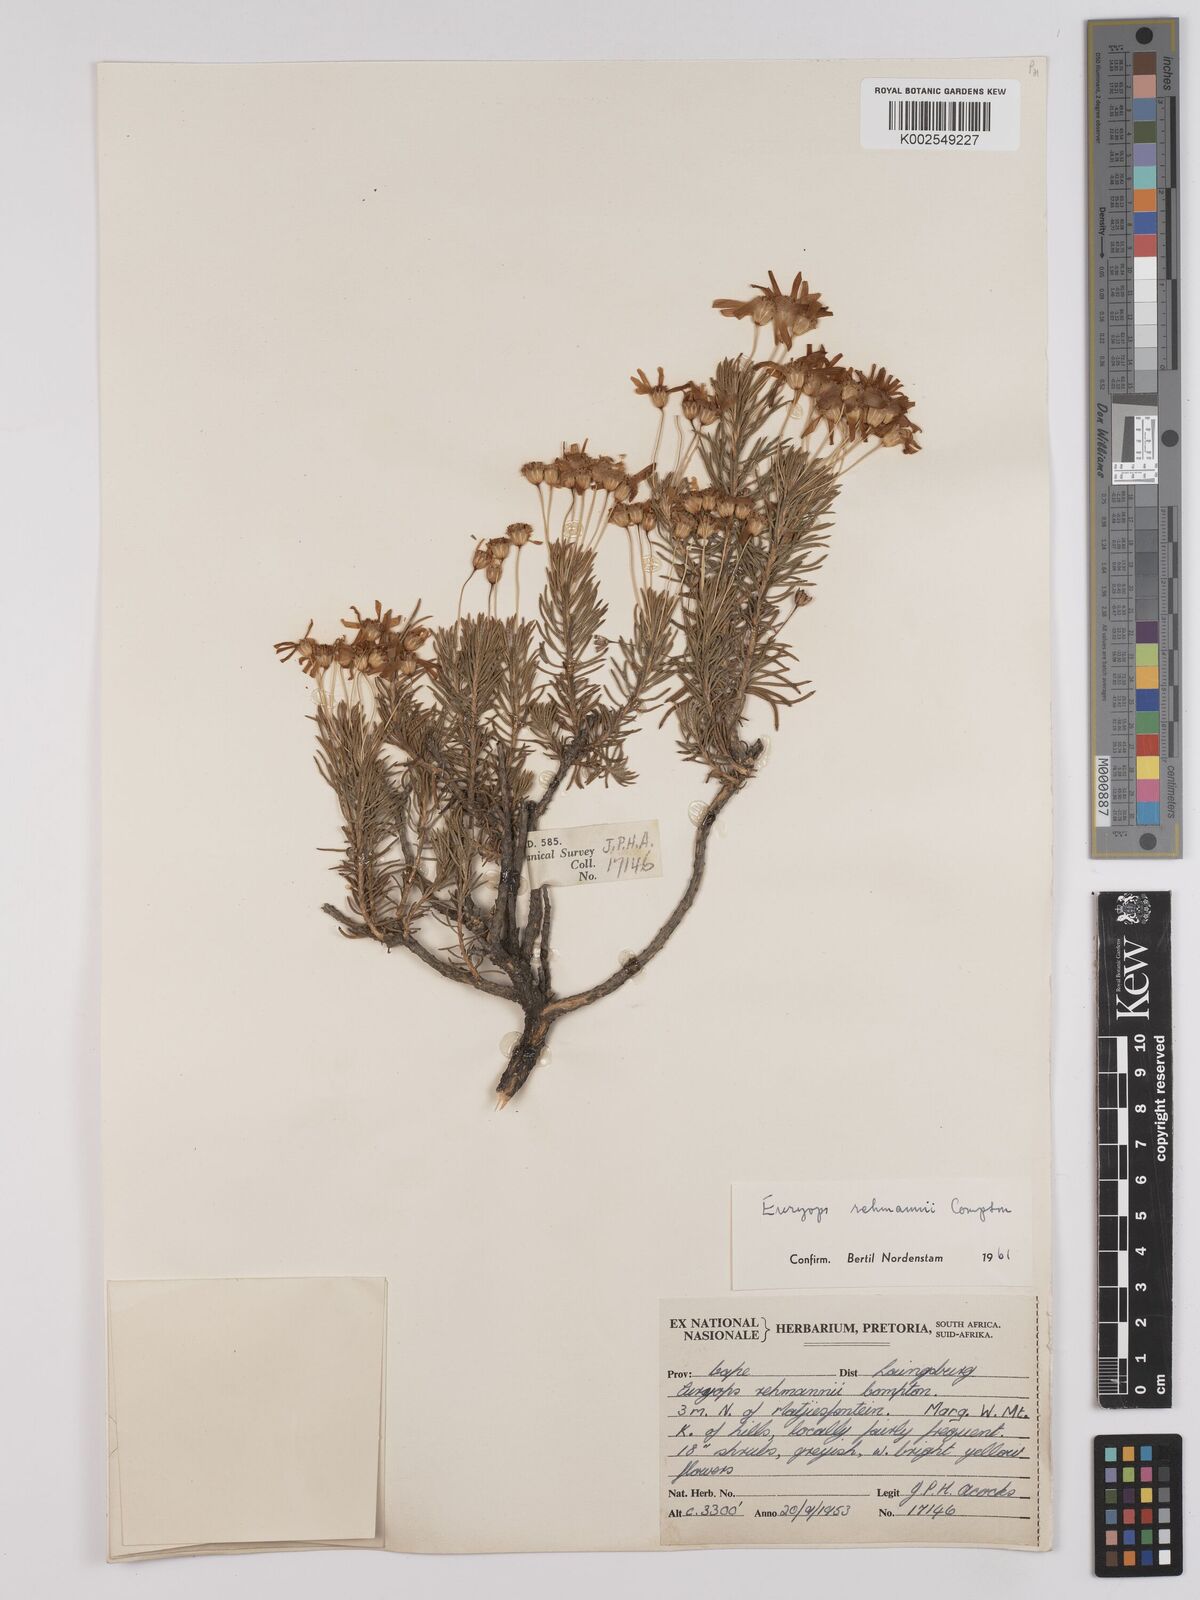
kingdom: Plantae
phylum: Tracheophyta
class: Magnoliopsida
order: Asterales
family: Asteraceae
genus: Euryops
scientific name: Euryops rehmannii
